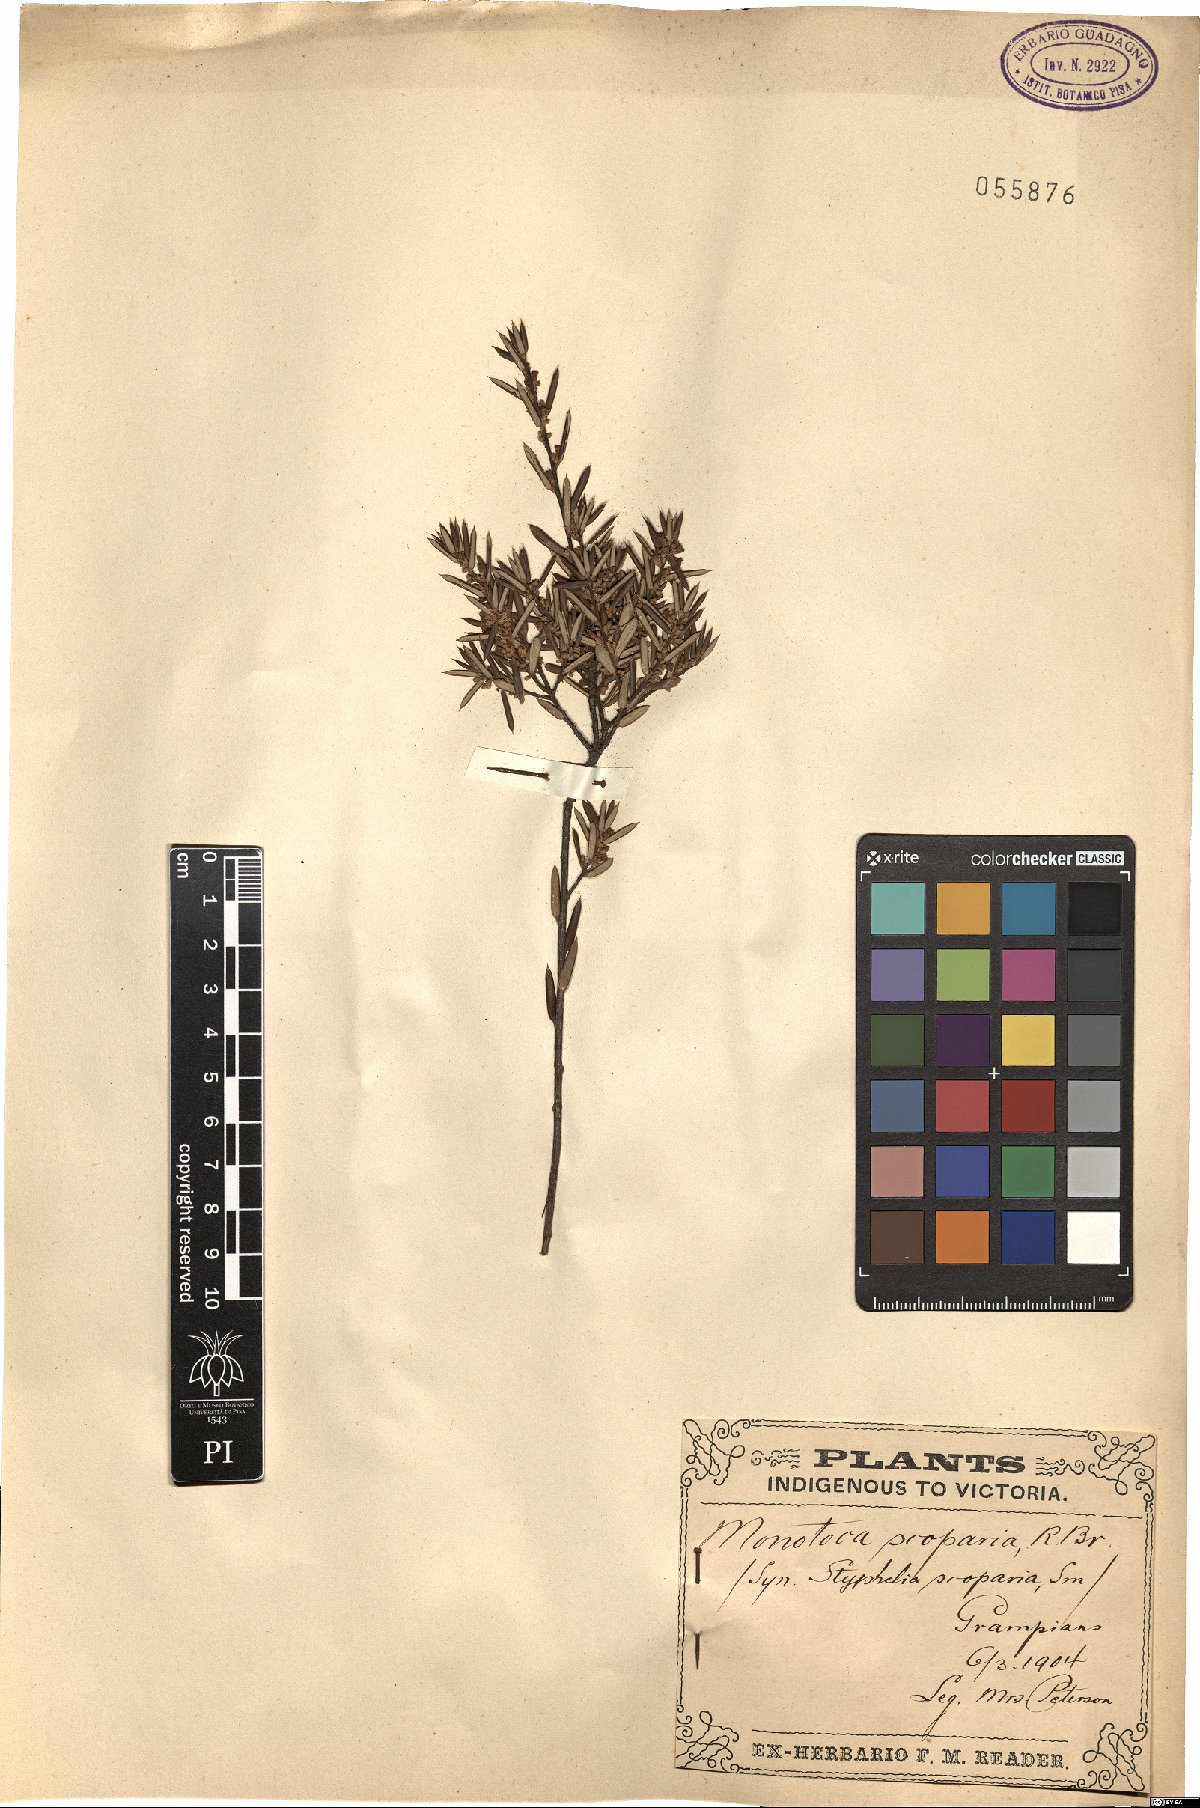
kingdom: Plantae
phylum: Tracheophyta
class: Magnoliopsida
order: Ericales
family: Ericaceae
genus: Monotoca
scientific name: Monotoca scoparia
